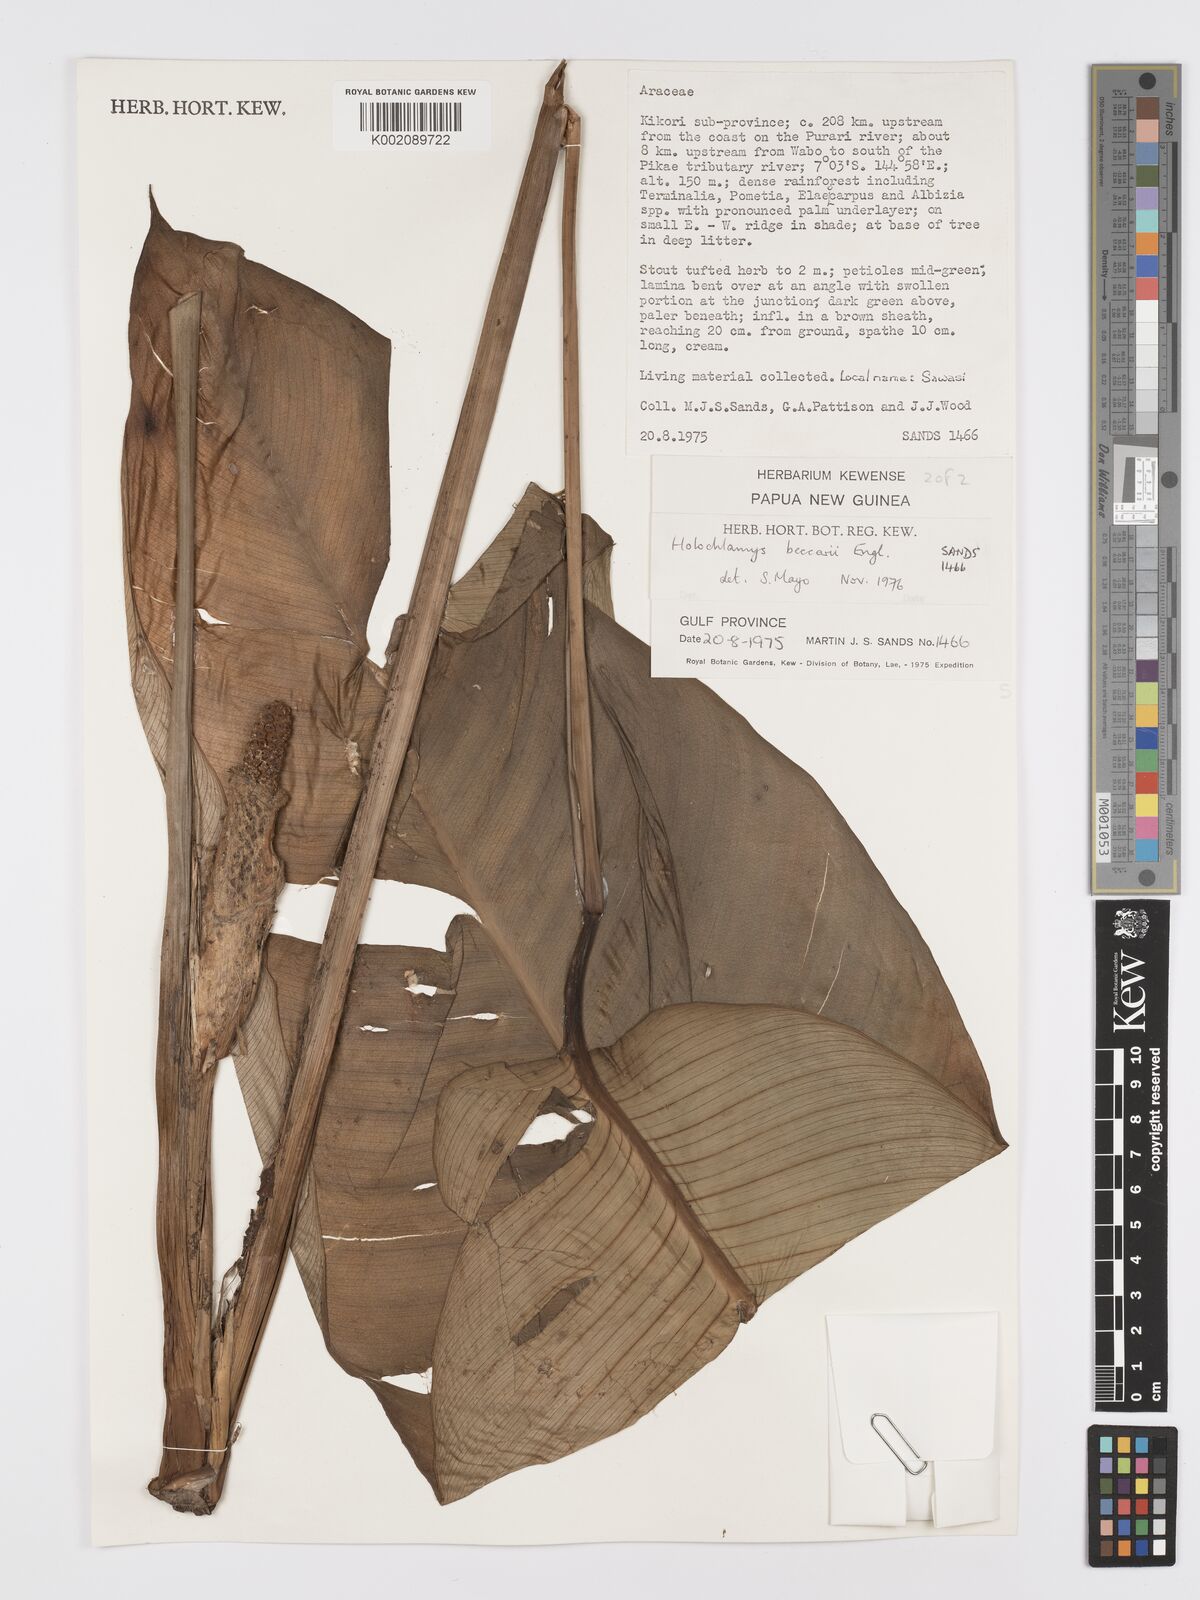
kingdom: Plantae
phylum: Tracheophyta
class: Liliopsida
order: Alismatales
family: Araceae
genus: Holochlamys
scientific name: Holochlamys beccarii
